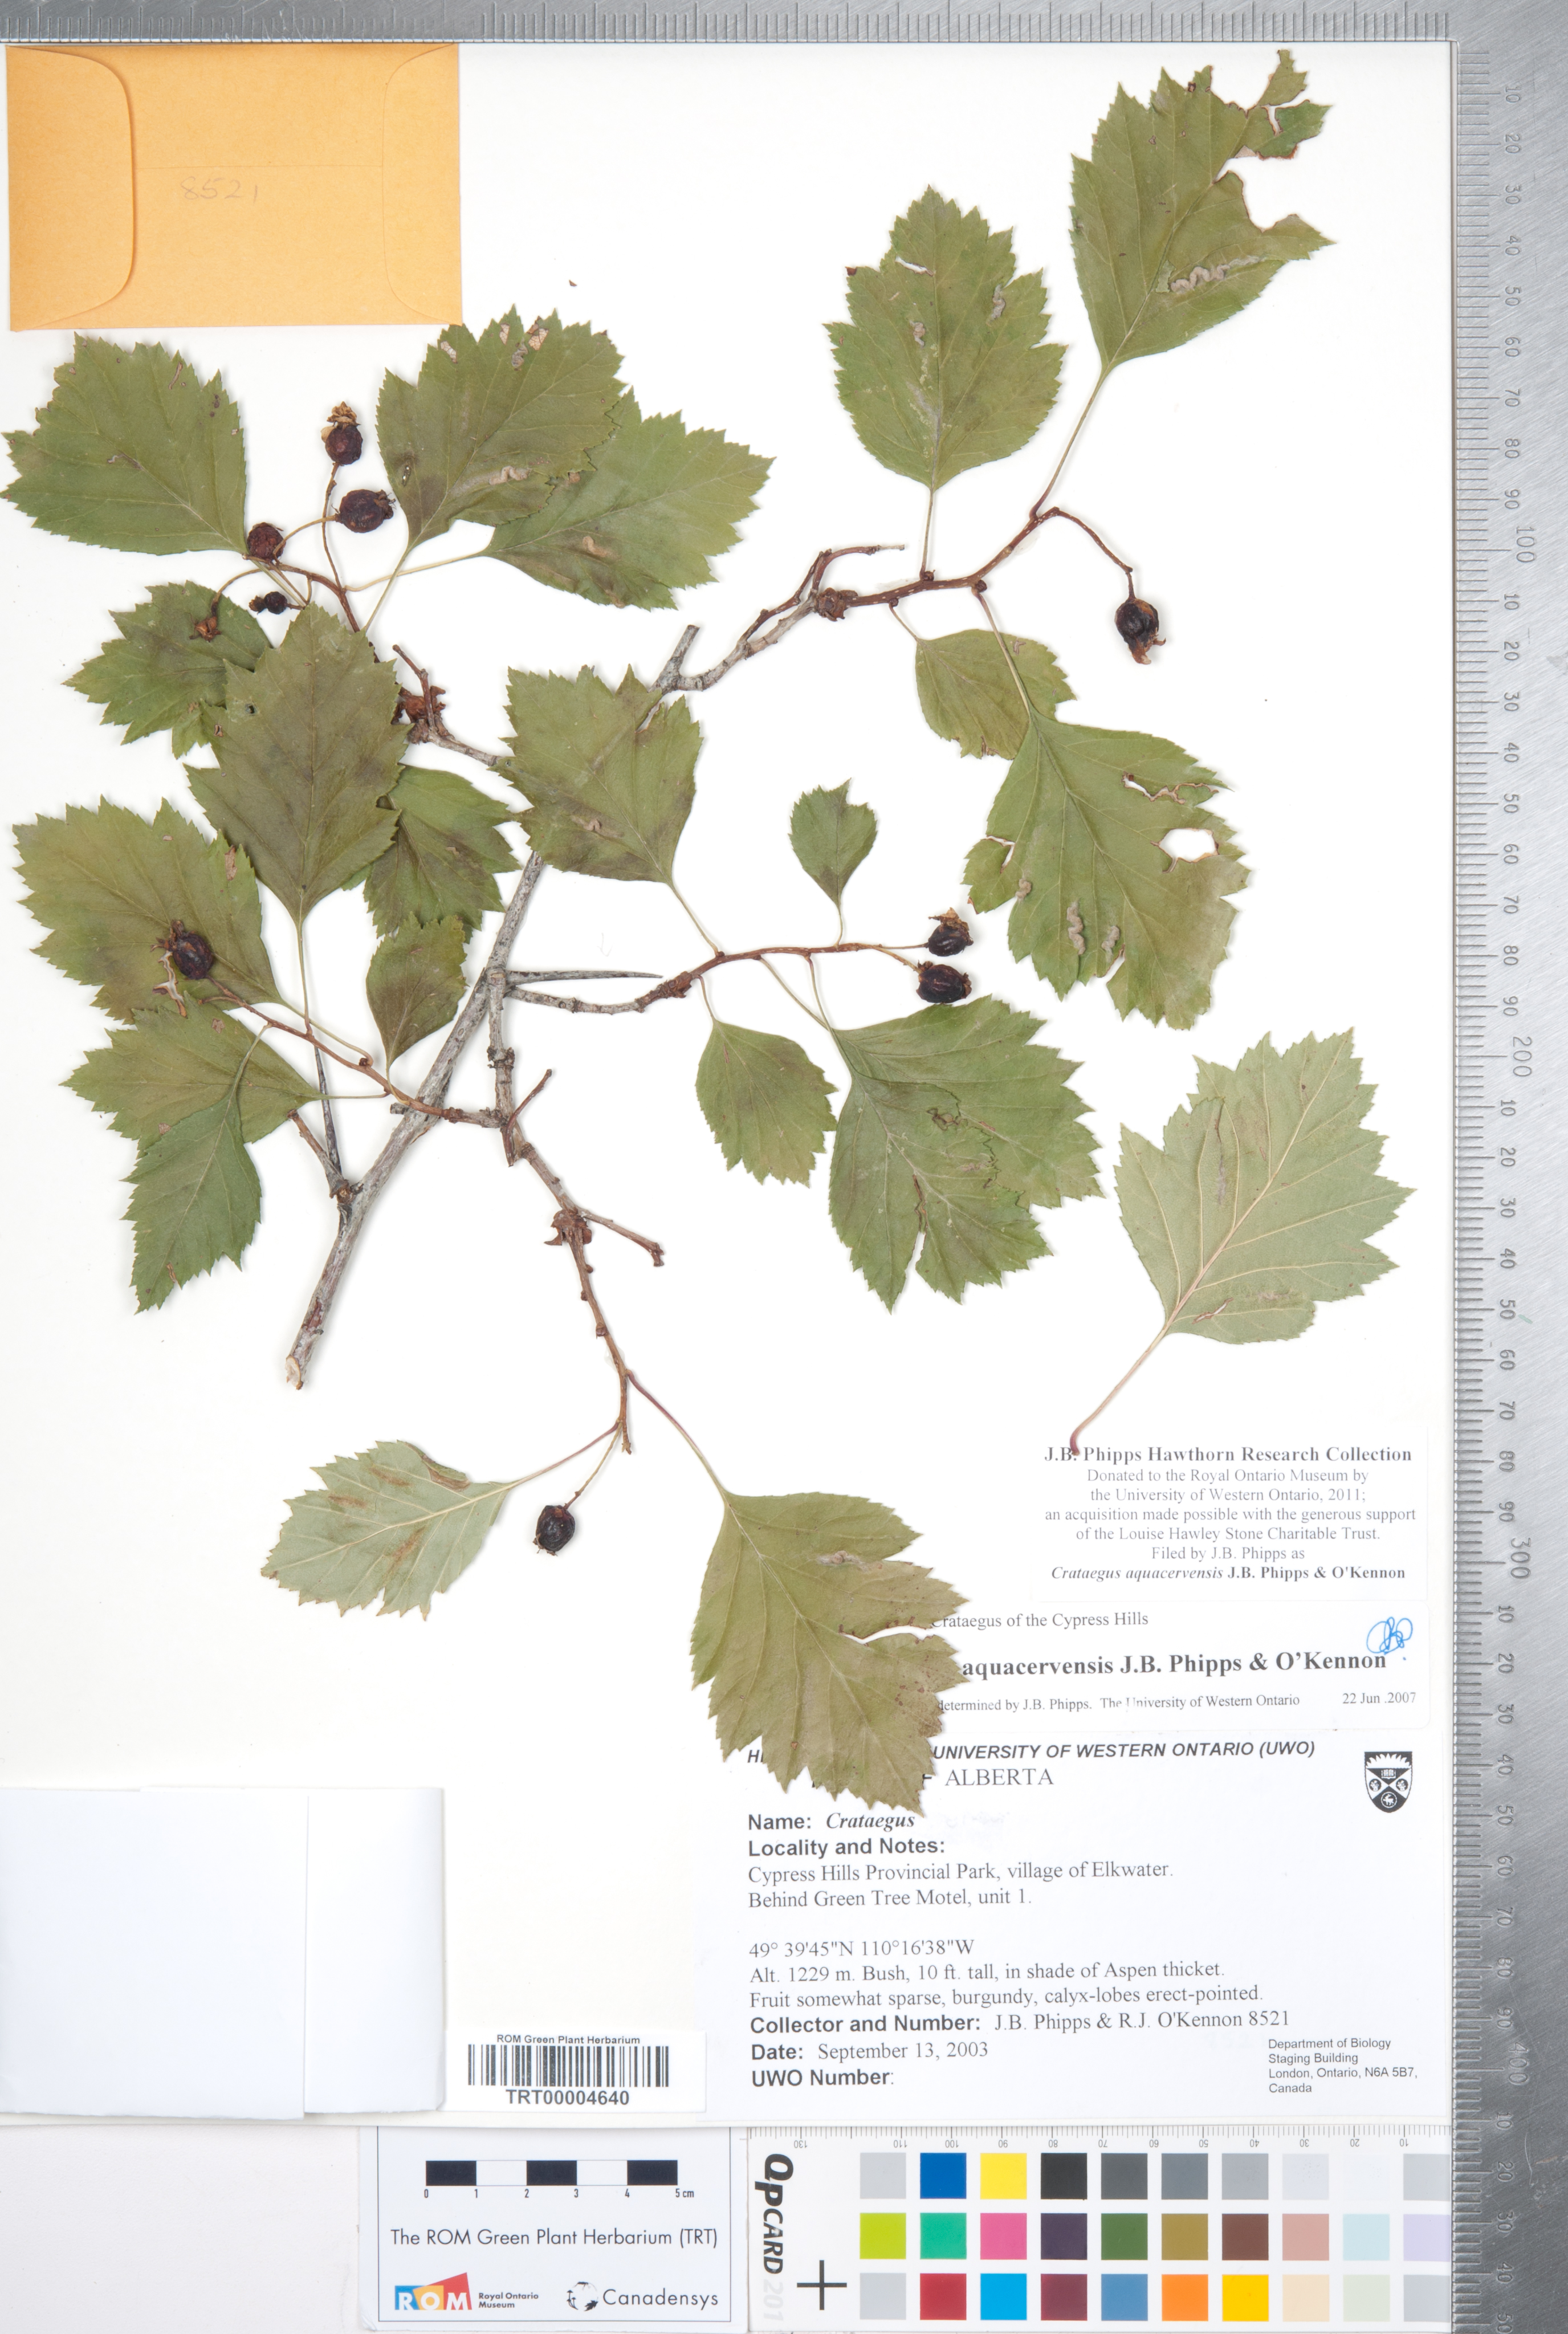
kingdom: Plantae
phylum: Tracheophyta
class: Magnoliopsida
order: Rosales
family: Rosaceae
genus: Crataegus
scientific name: Crataegus aquacervensis
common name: Elkwater hawthorn
